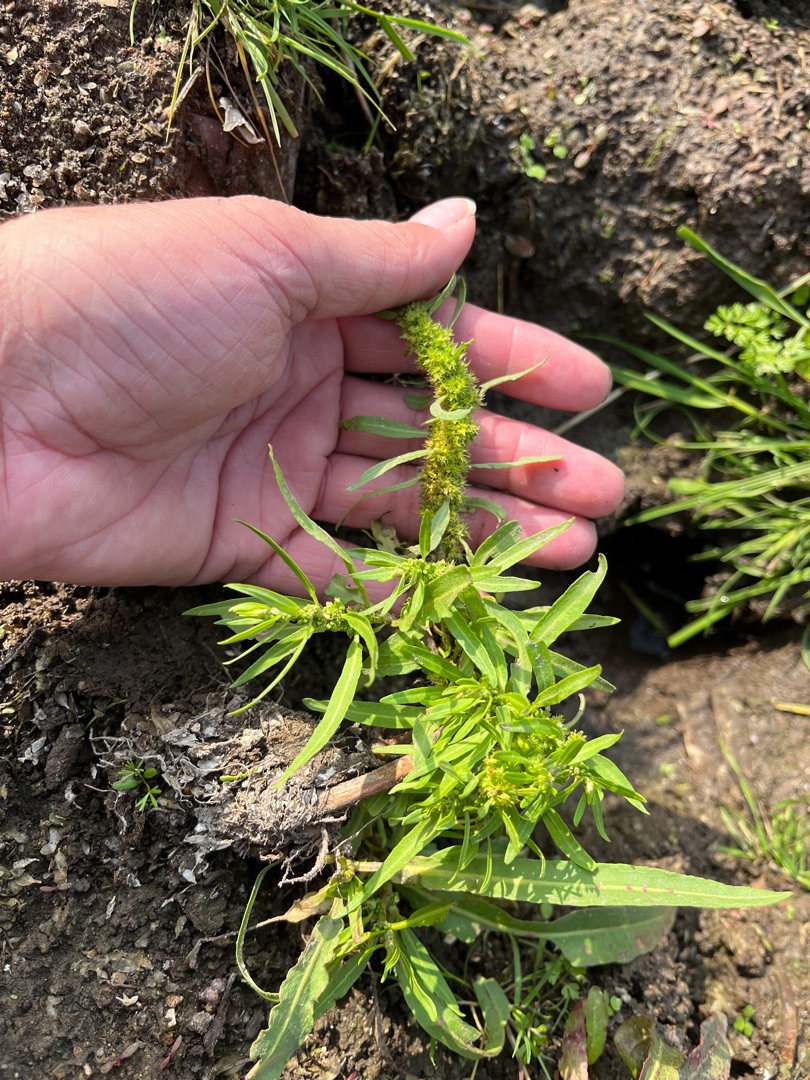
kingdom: Plantae
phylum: Tracheophyta
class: Magnoliopsida
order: Caryophyllales
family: Polygonaceae
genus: Rumex
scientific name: Rumex maritimus
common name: Strand-skræppe
